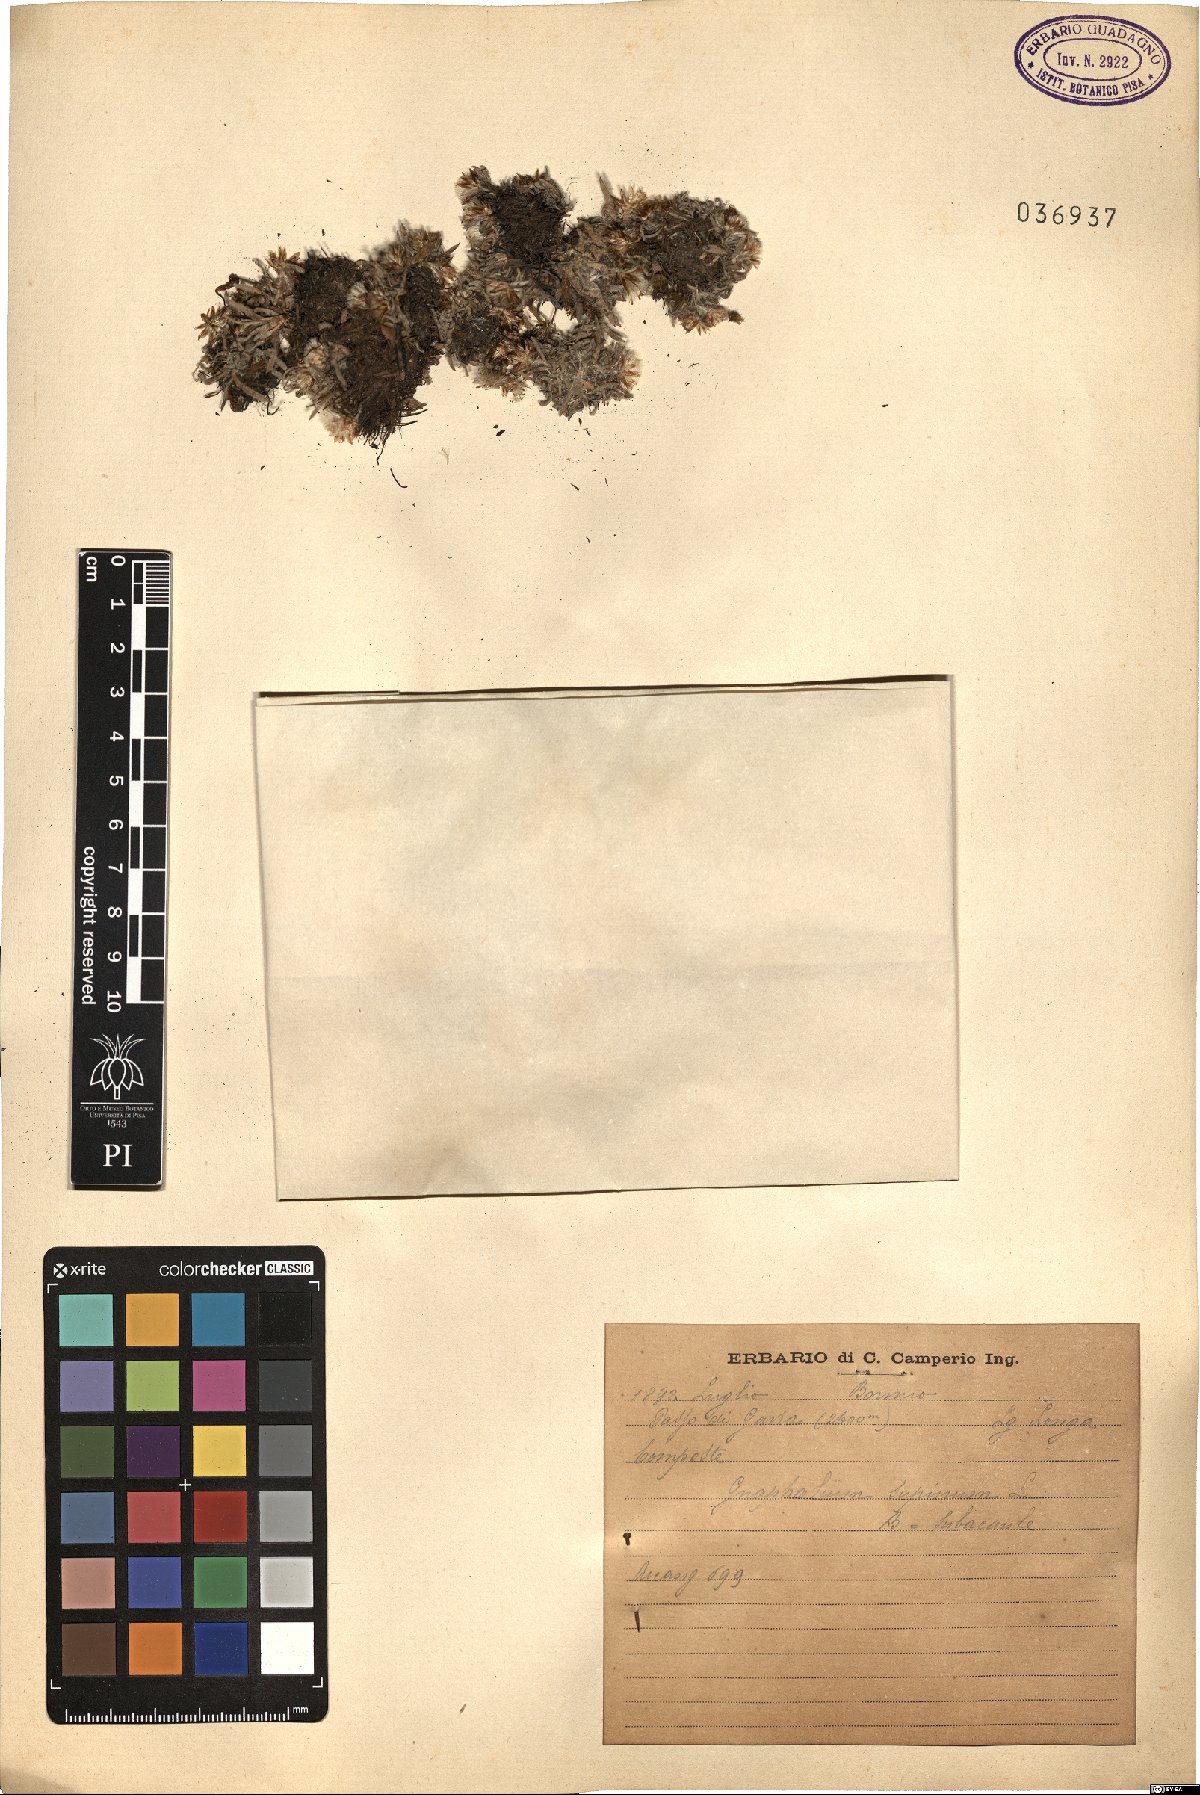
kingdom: Plantae
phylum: Tracheophyta
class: Magnoliopsida
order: Asterales
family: Asteraceae
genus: Omalotheca
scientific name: Omalotheca supina
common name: Alpine arctic-cudweed
